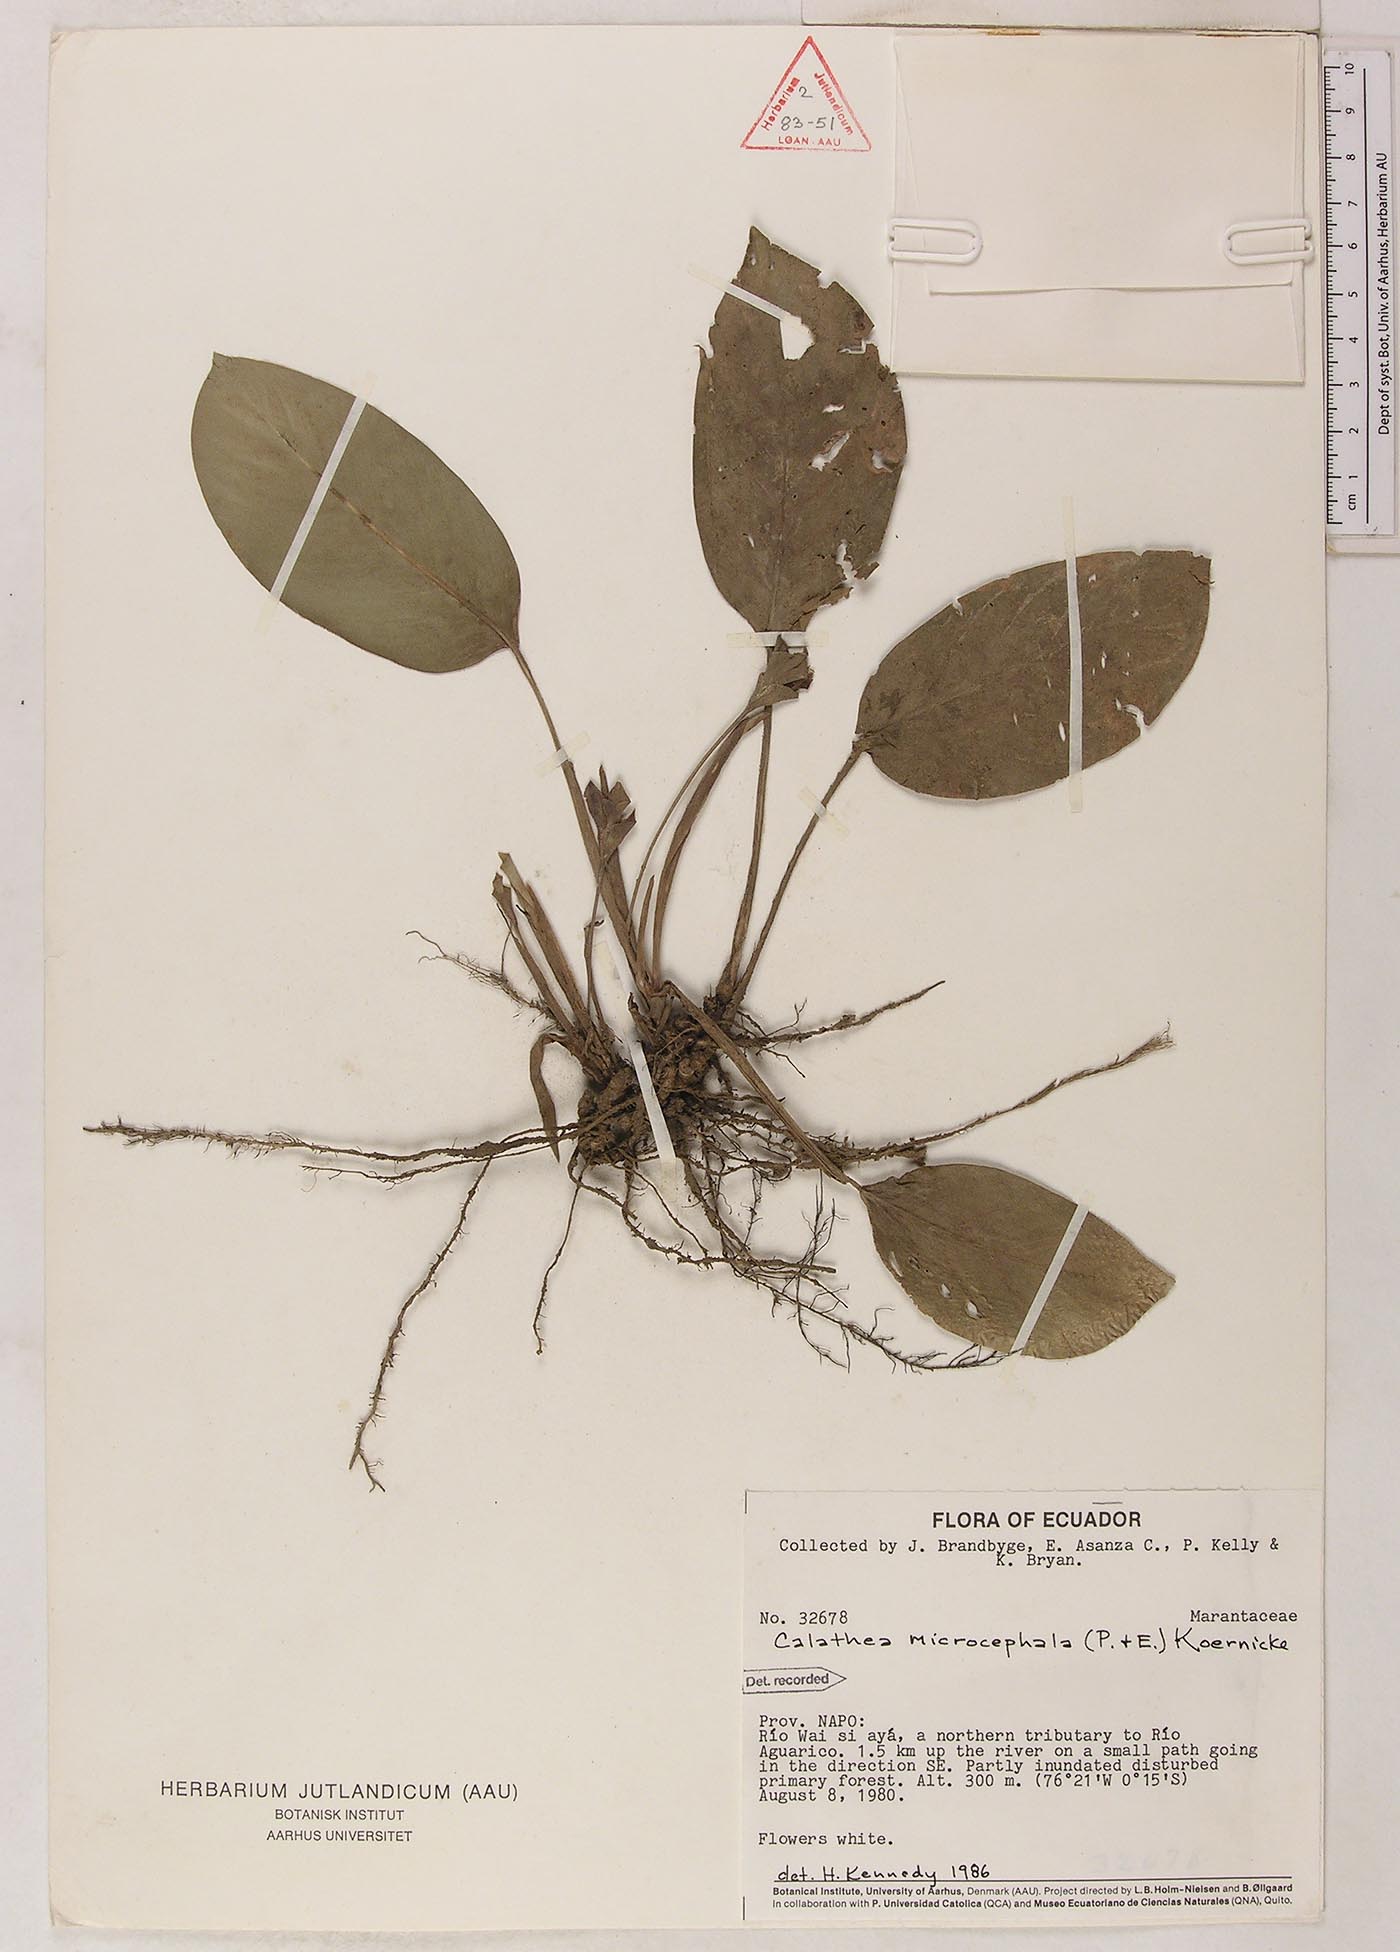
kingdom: Plantae
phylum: Tracheophyta
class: Liliopsida
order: Zingiberales
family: Marantaceae
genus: Goeppertia
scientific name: Goeppertia microcephala
